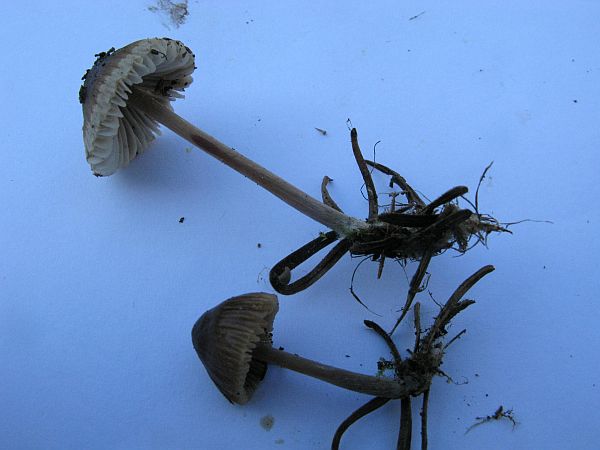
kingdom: Fungi
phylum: Basidiomycota
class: Agaricomycetes
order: Agaricales
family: Mycenaceae
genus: Mycena
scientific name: Mycena zephirus
